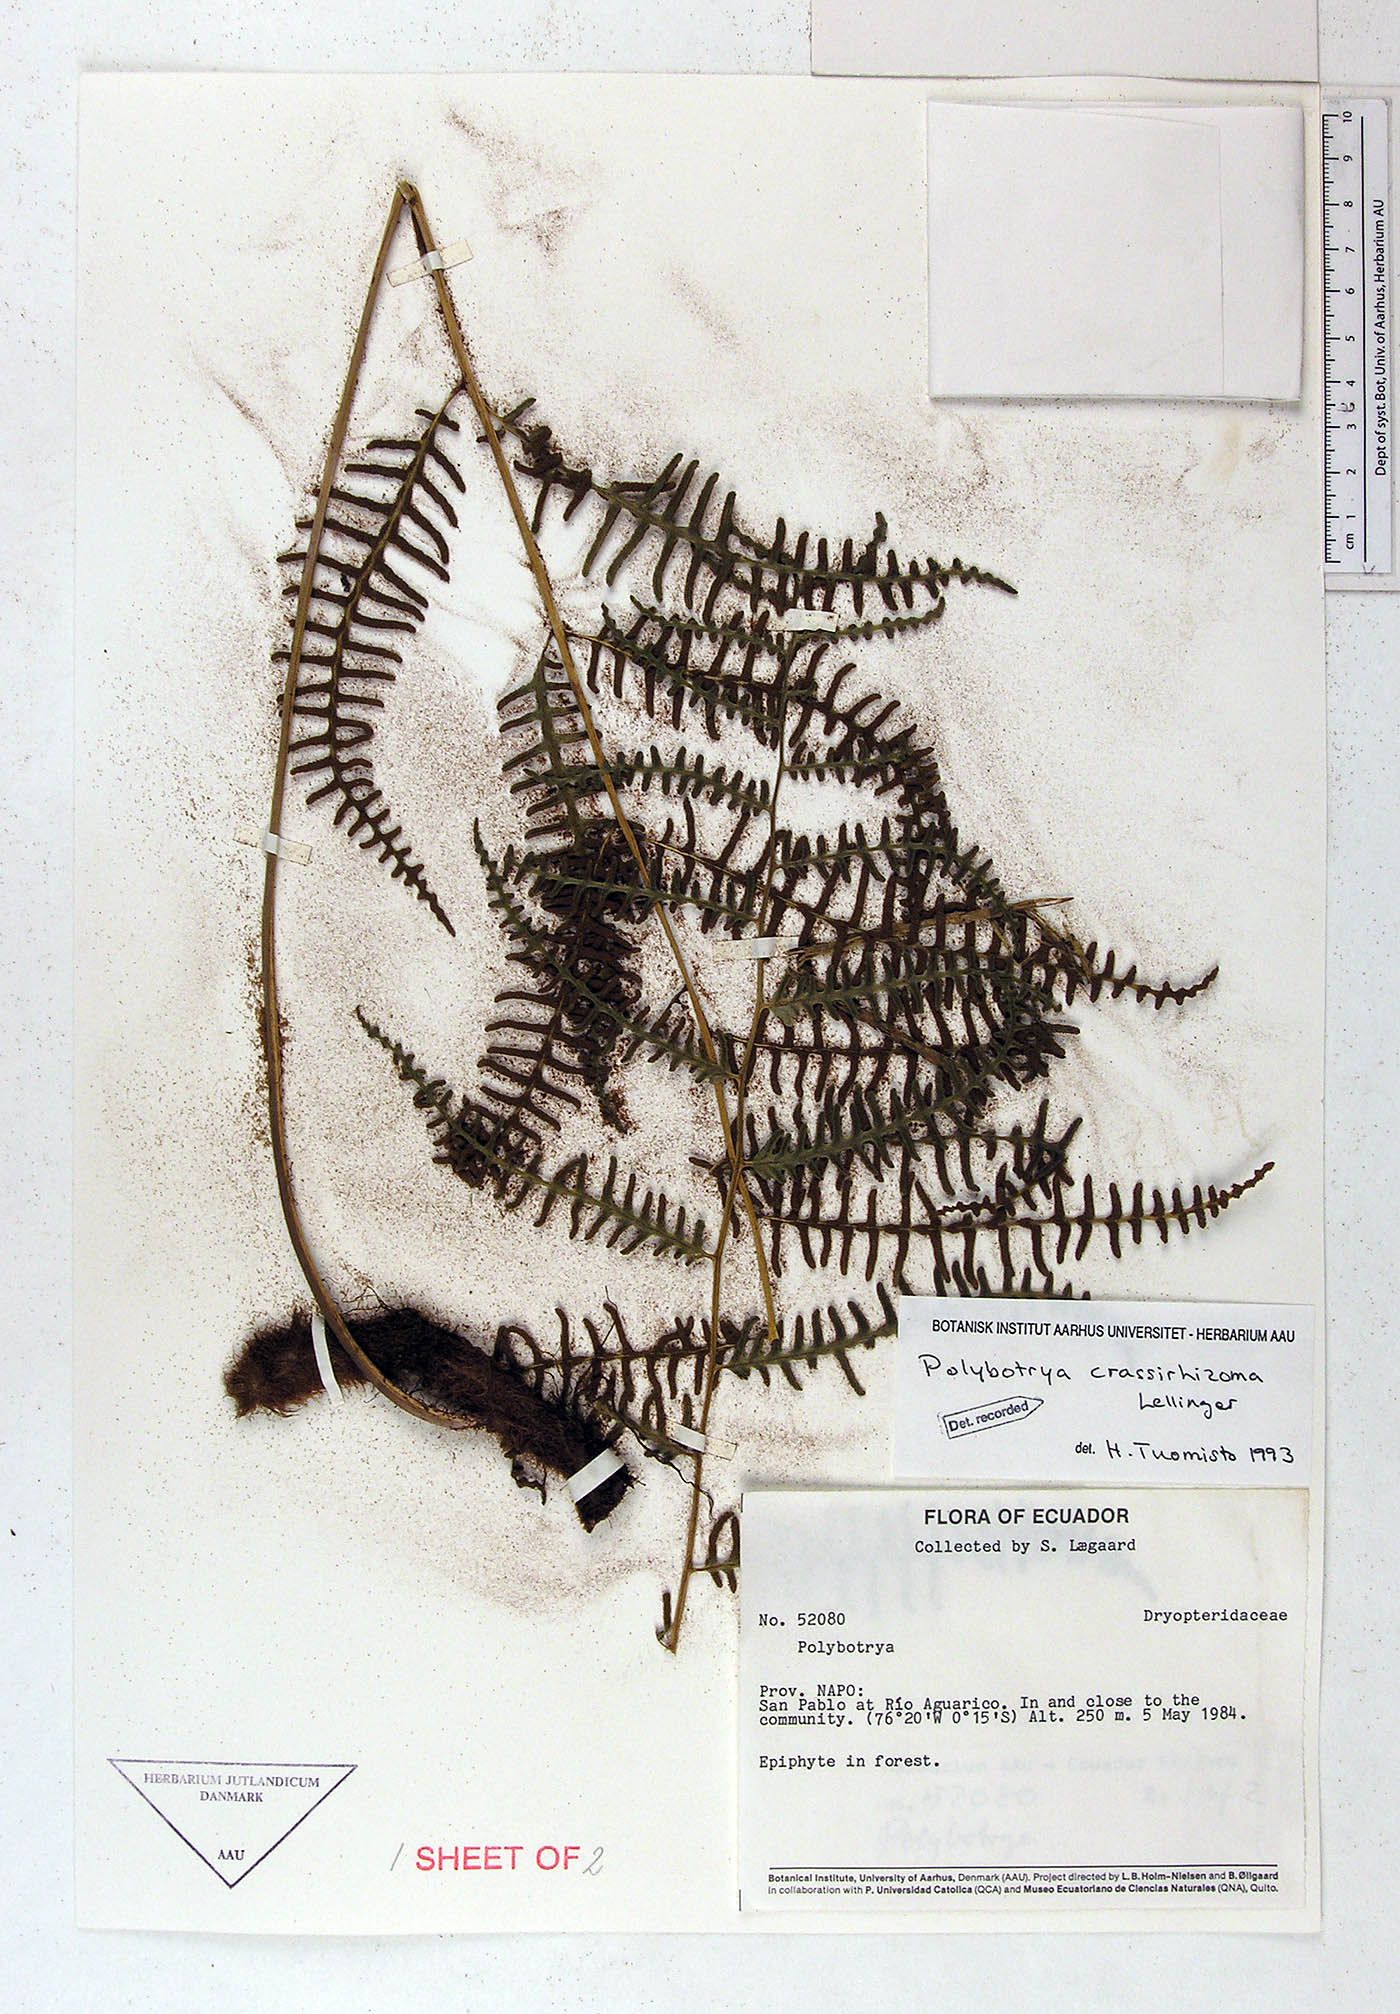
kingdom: Plantae
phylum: Tracheophyta
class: Polypodiopsida
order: Polypodiales
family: Dryopteridaceae
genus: Polybotrya
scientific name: Polybotrya crassirhizoma
